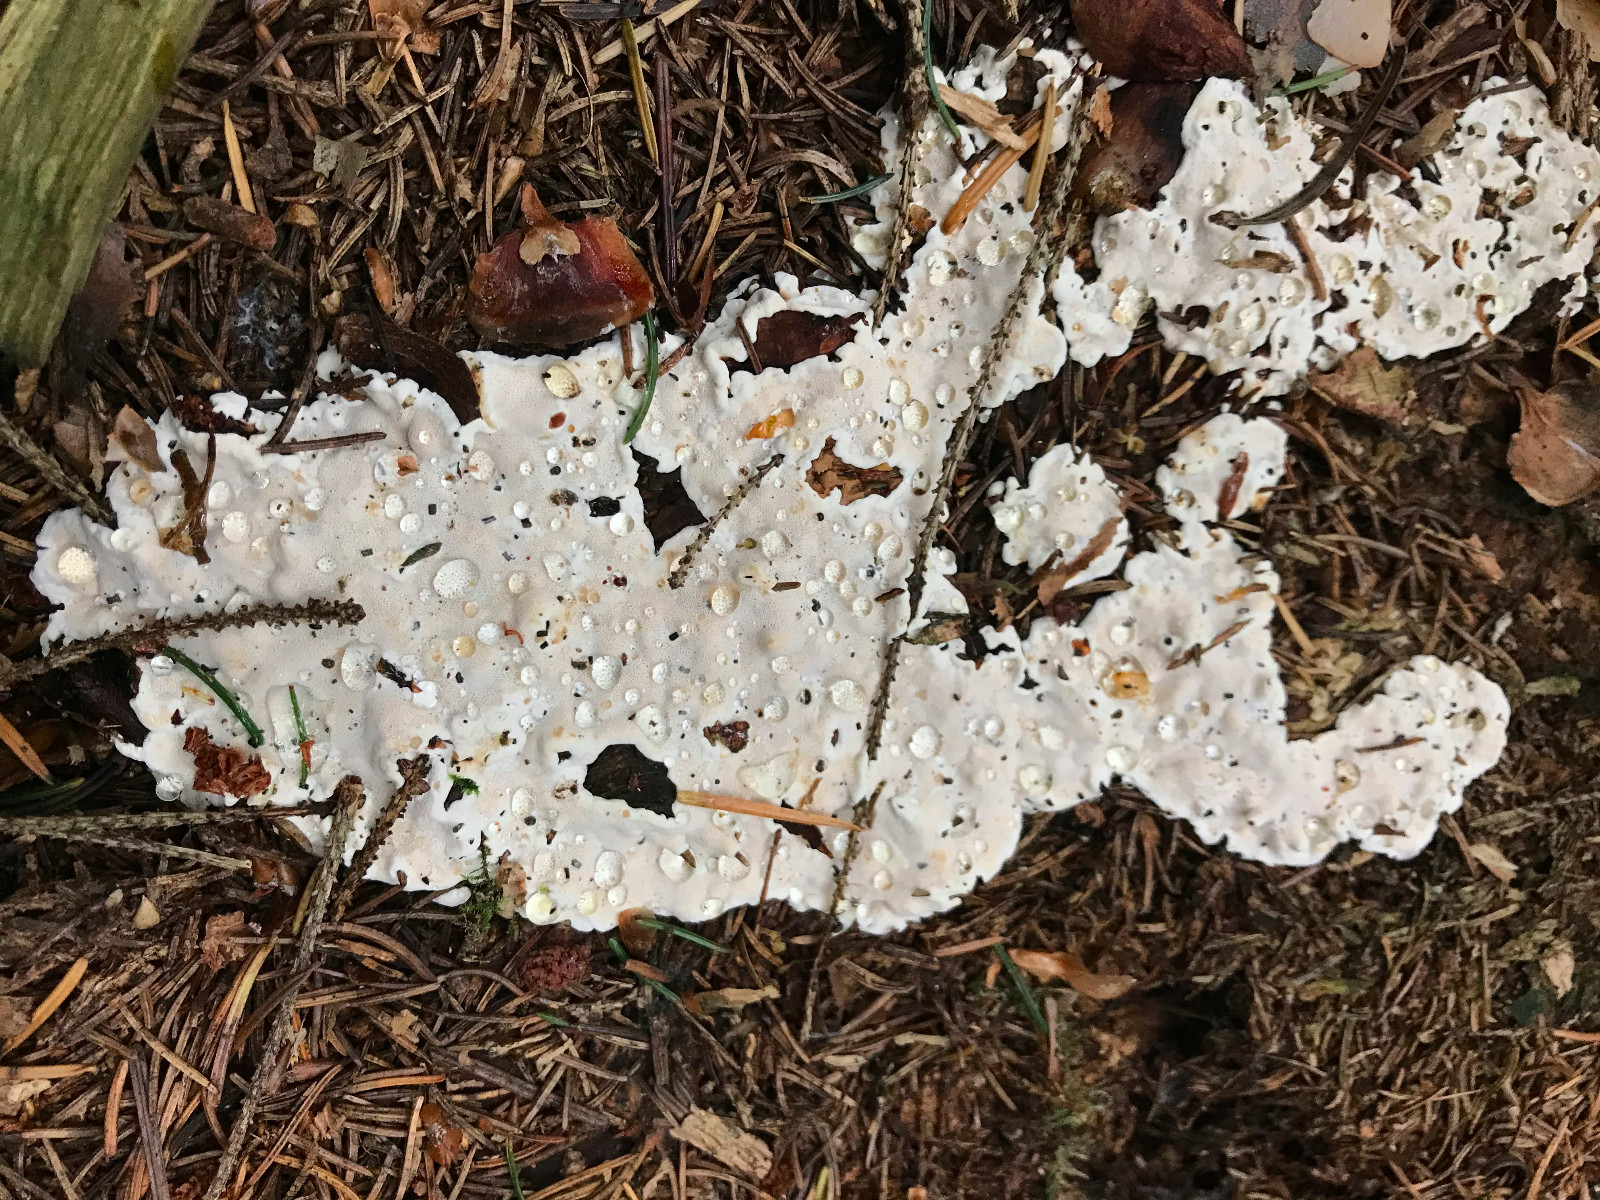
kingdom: Fungi
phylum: Basidiomycota
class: Agaricomycetes
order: Russulales
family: Bondarzewiaceae
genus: Heterobasidion
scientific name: Heterobasidion
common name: rodfordærver
